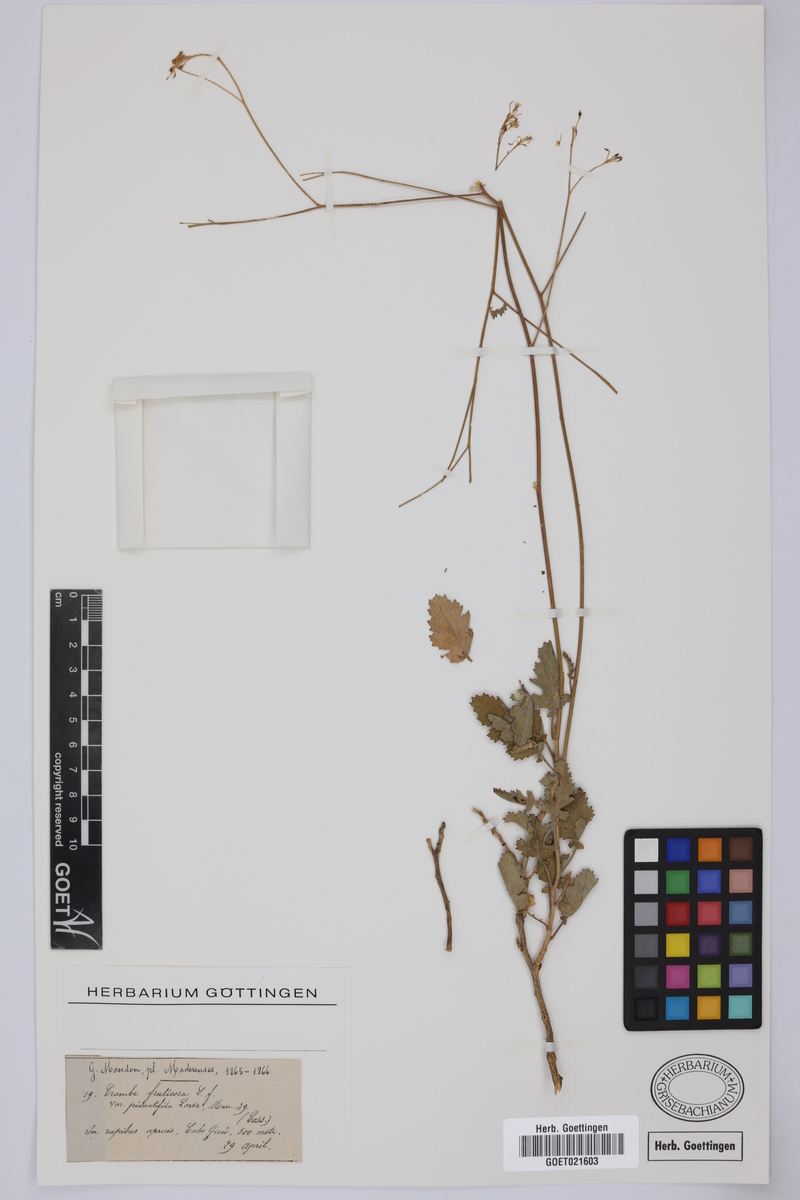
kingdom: Plantae
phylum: Tracheophyta
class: Magnoliopsida
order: Brassicales
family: Brassicaceae
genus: Crambe
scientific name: Crambe fruticosa
